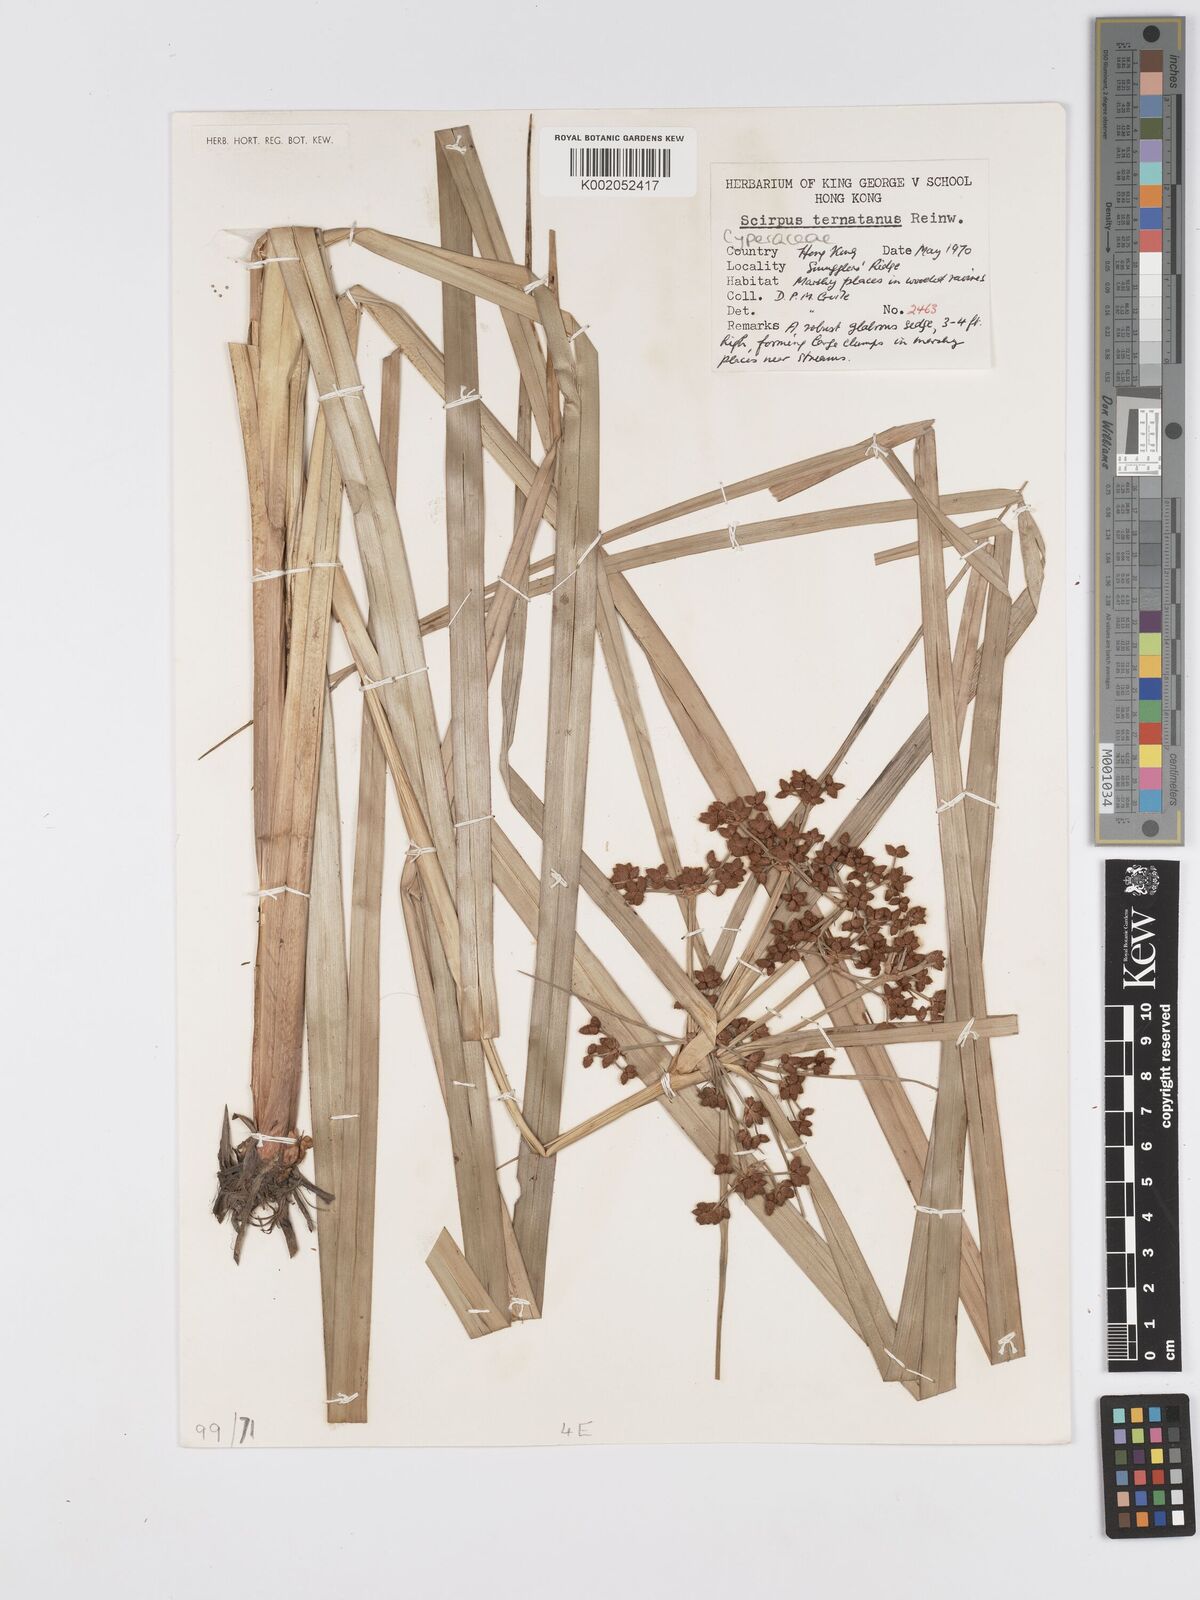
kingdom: Plantae
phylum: Tracheophyta
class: Liliopsida
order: Poales
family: Cyperaceae
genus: Scirpus
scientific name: Scirpus ternatanus
